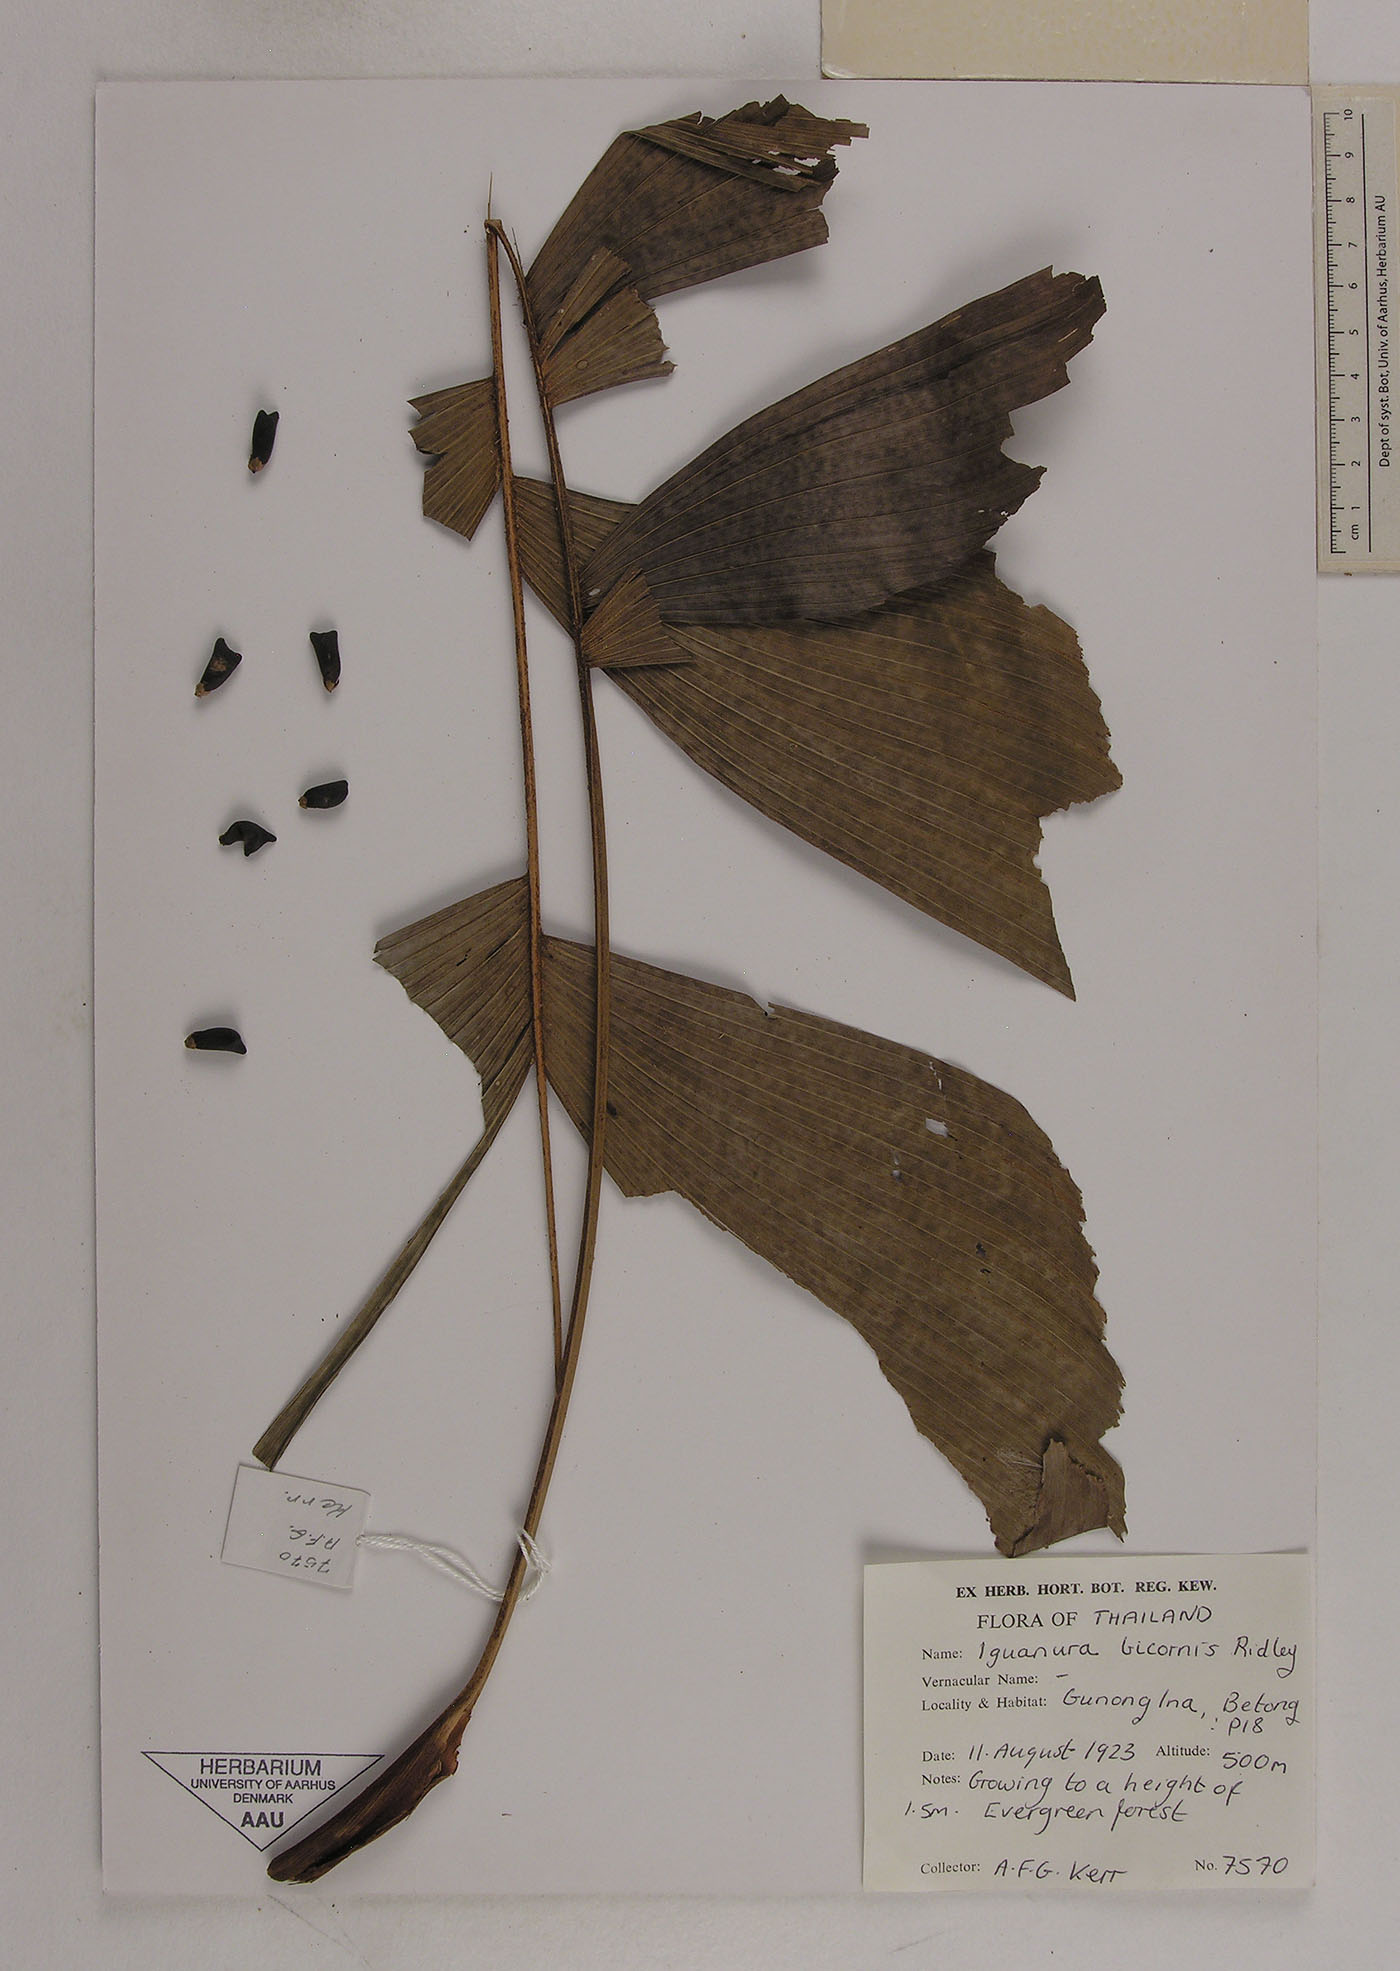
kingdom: Plantae
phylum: Tracheophyta
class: Liliopsida
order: Arecales
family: Arecaceae
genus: Iguanura
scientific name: Iguanura bicornis
